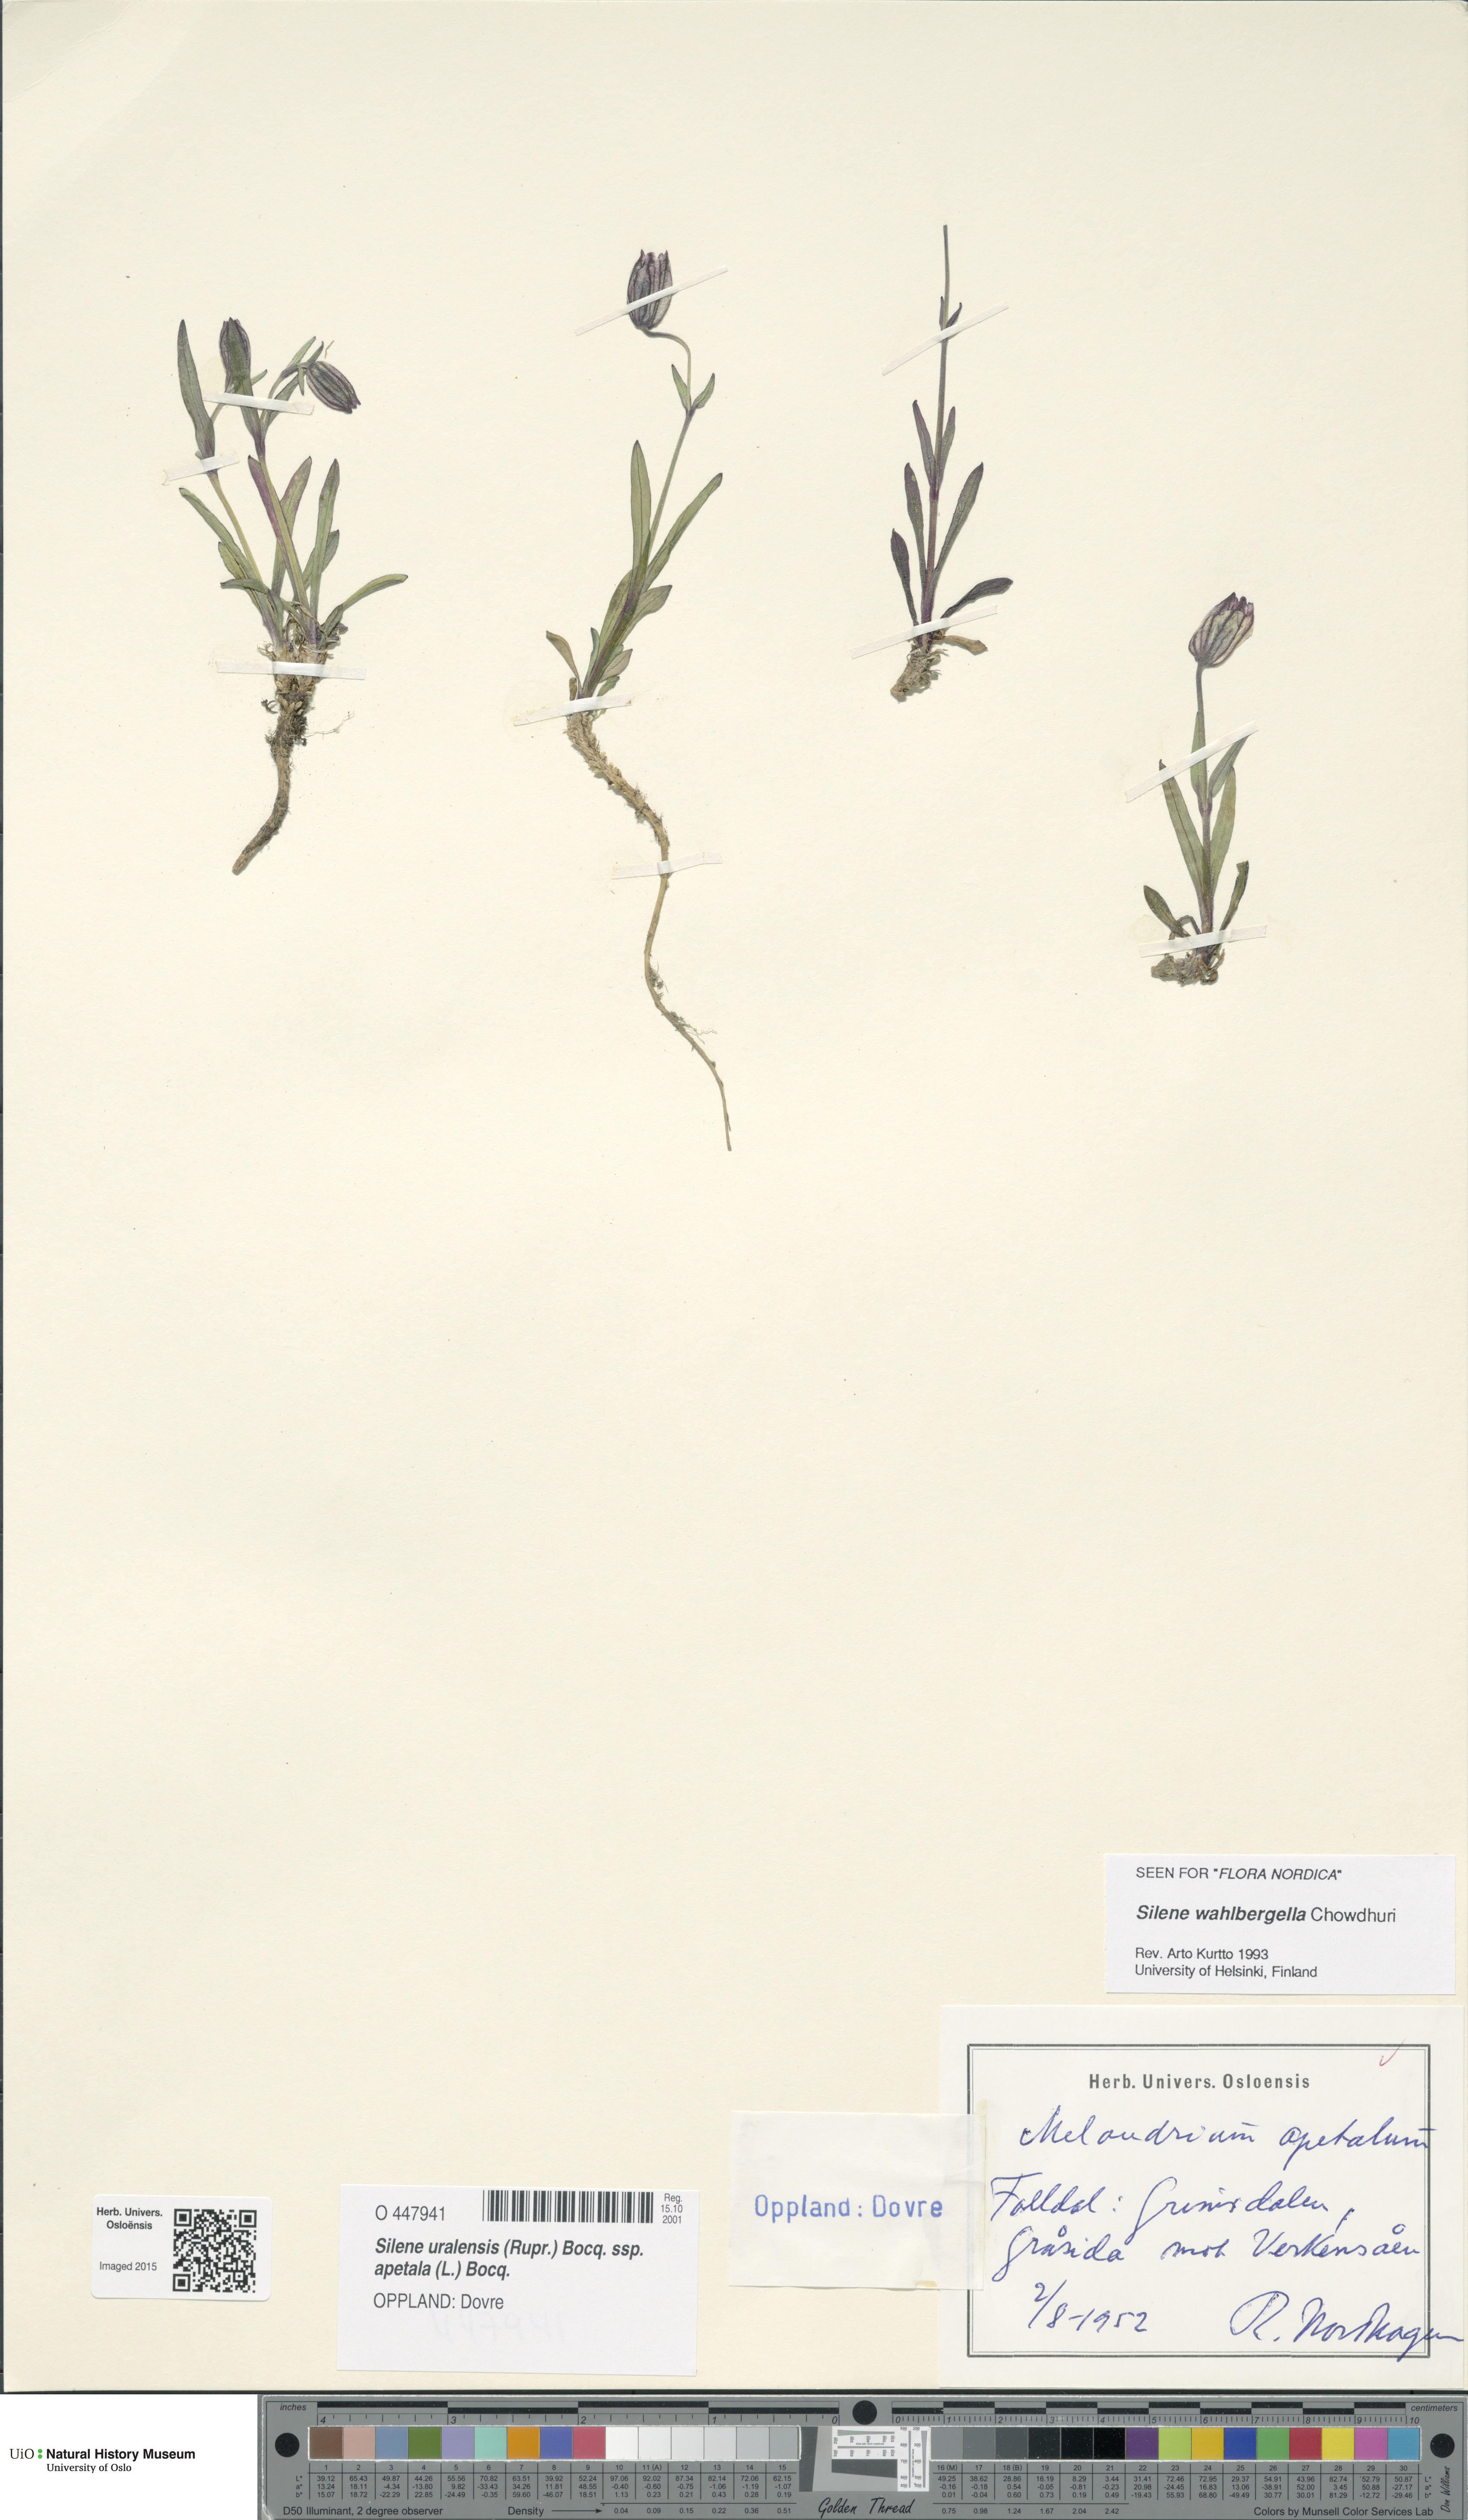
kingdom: Plantae
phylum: Tracheophyta
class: Magnoliopsida
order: Caryophyllales
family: Caryophyllaceae
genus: Silene
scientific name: Silene wahlbergella
